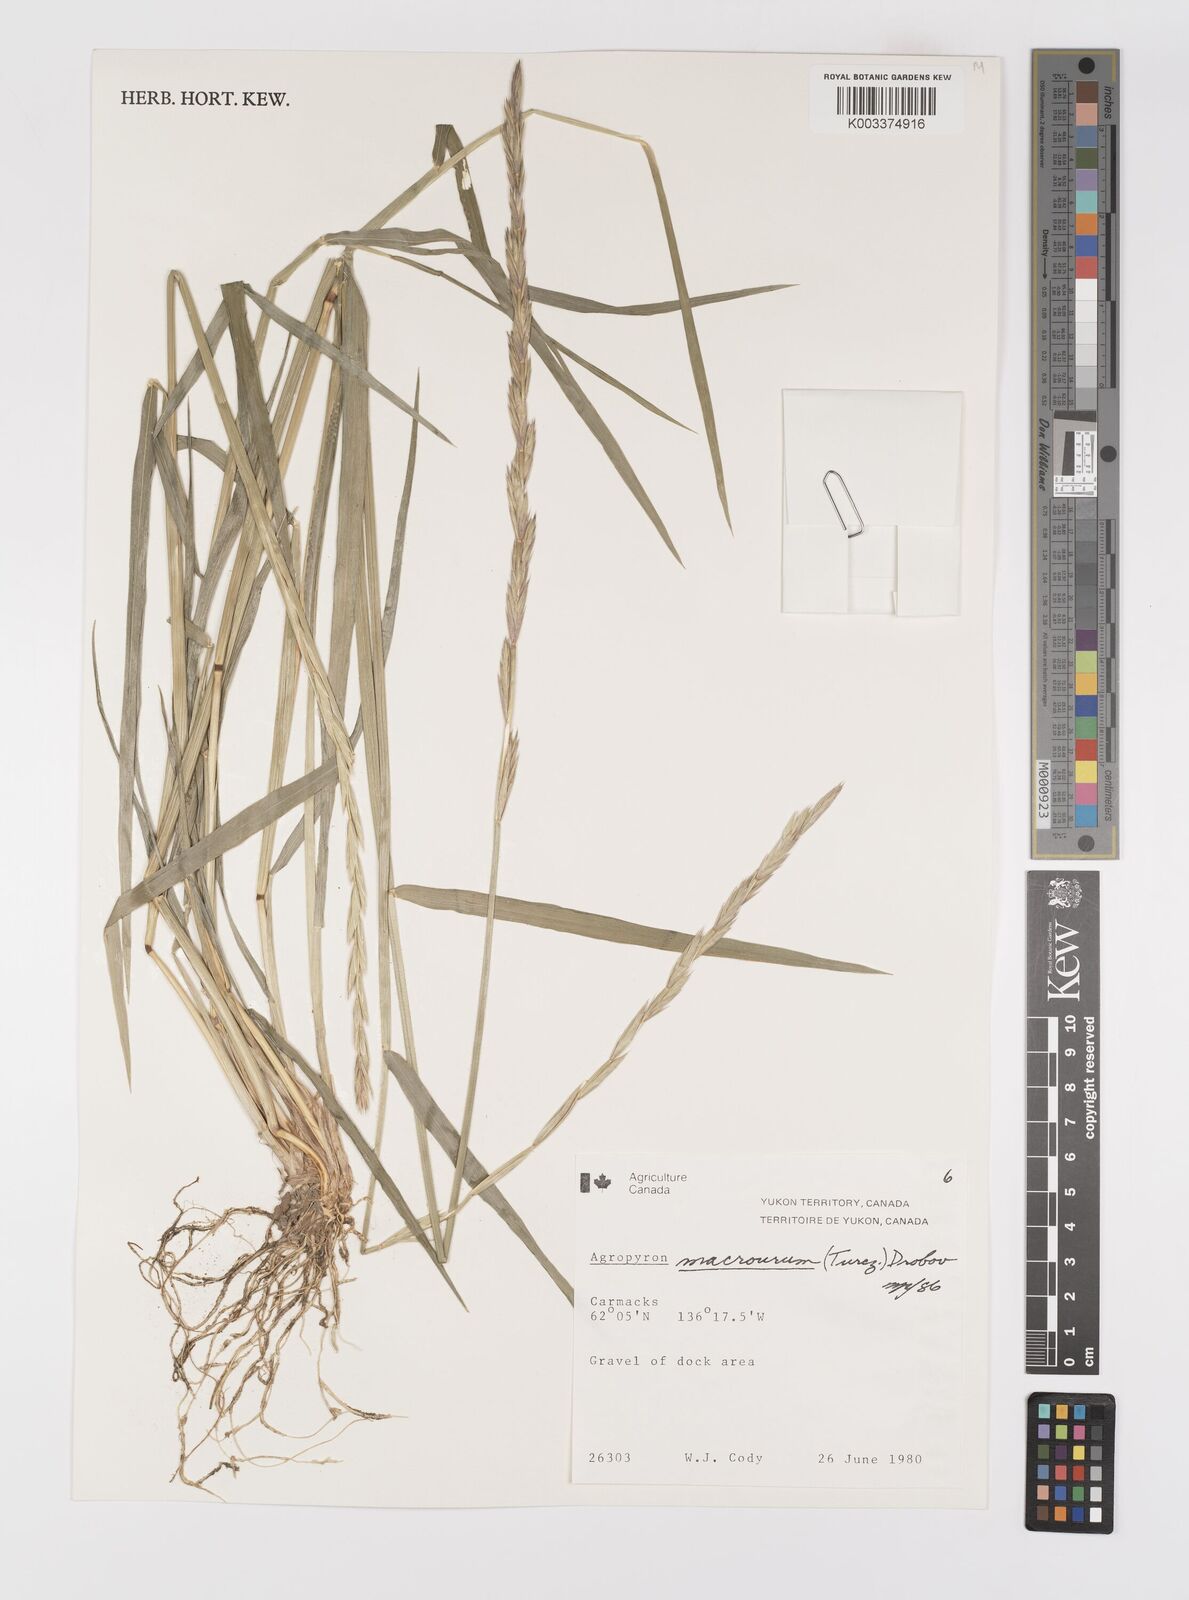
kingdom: Plantae
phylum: Tracheophyta
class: Liliopsida
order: Poales
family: Poaceae
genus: Elymus
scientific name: Elymus macrourus
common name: Northern wheatgrass
